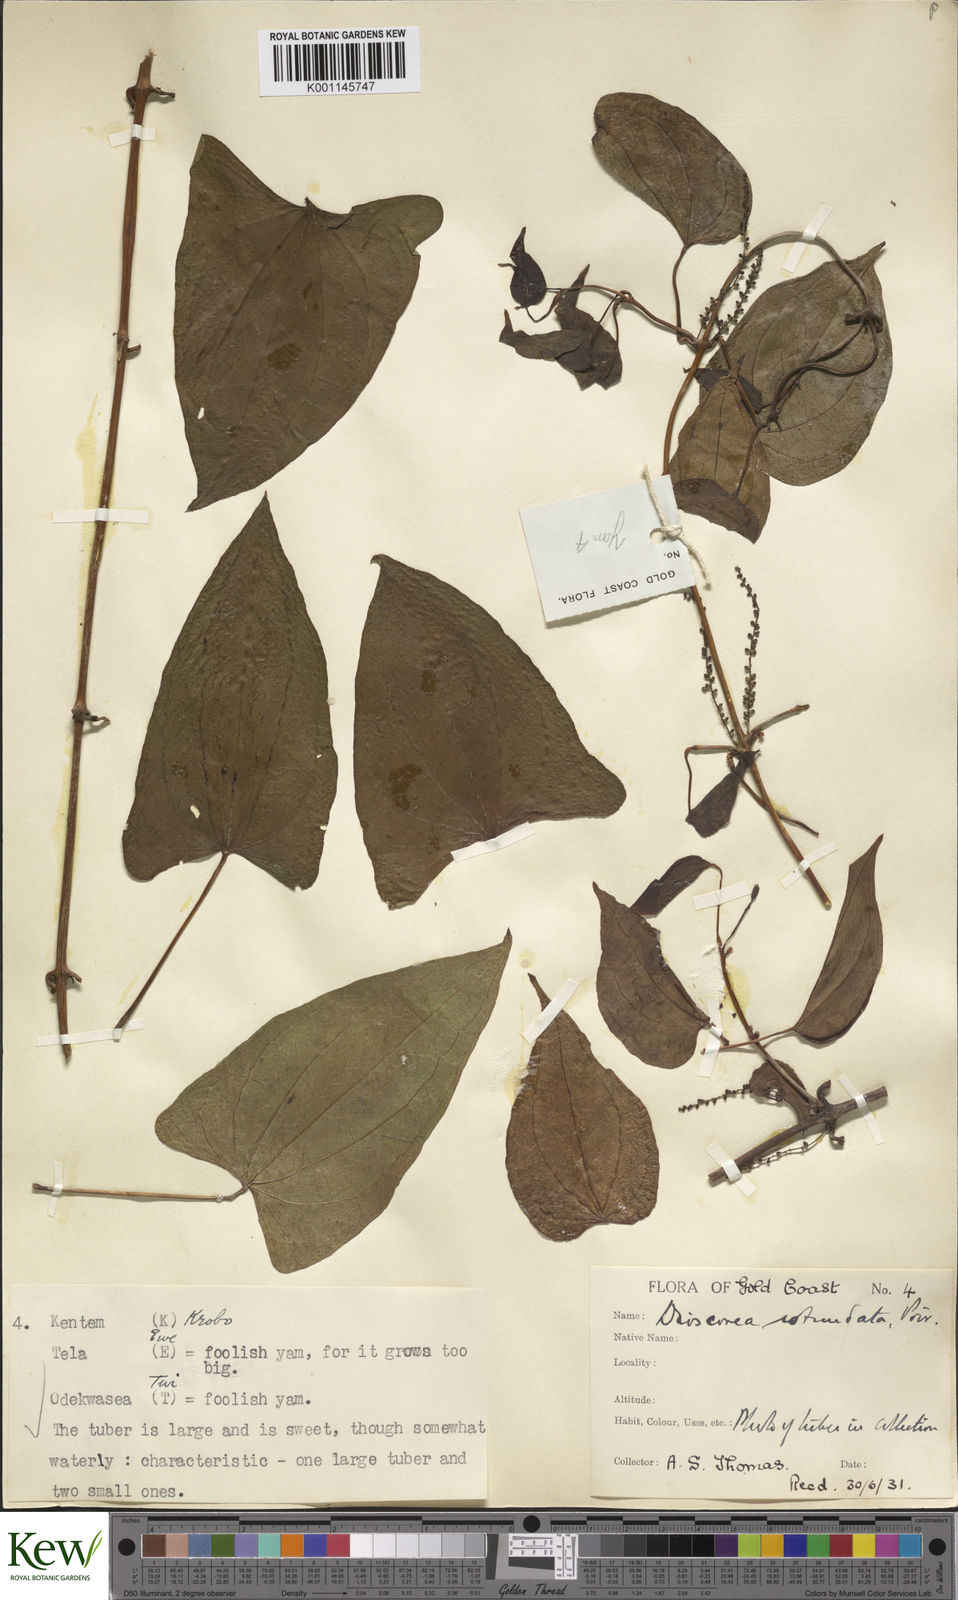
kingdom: Plantae
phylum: Tracheophyta
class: Liliopsida
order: Dioscoreales
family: Dioscoreaceae
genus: Dioscorea
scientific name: Dioscorea cayenensis
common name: Attoto yam
